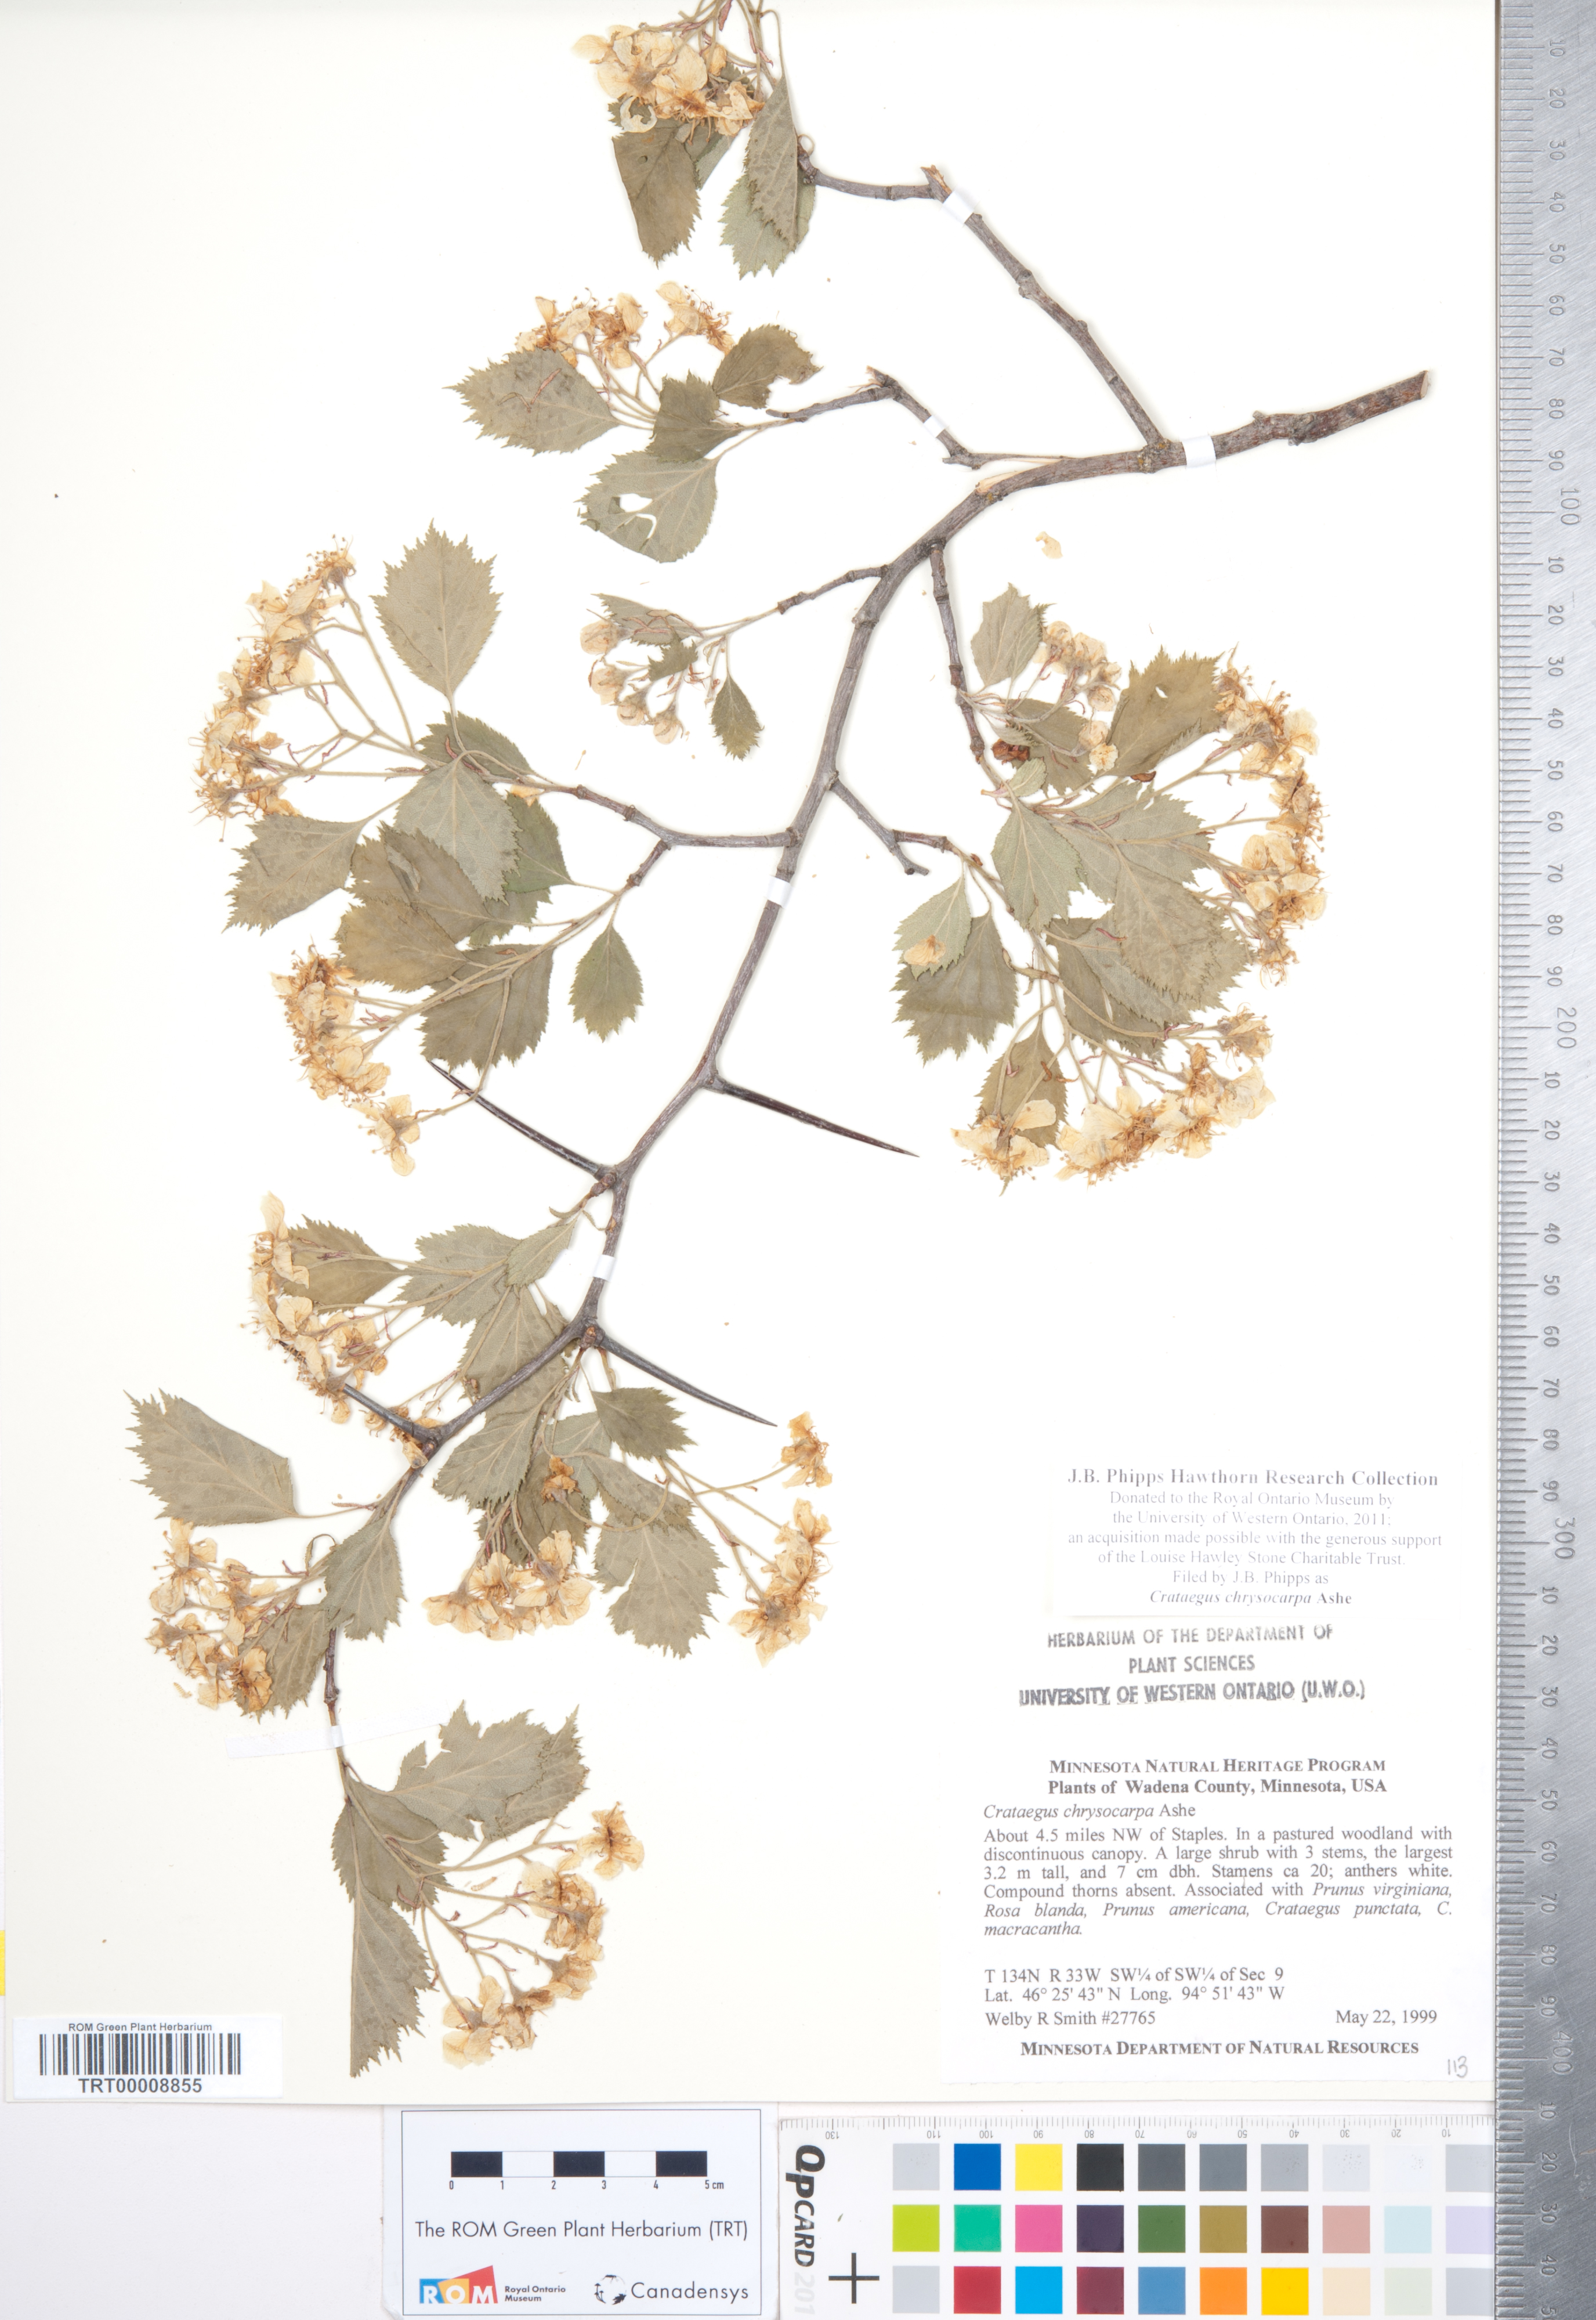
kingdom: Plantae
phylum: Tracheophyta
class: Magnoliopsida
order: Rosales
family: Rosaceae
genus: Crataegus
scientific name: Crataegus chrysocarpa
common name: Fire-berry hawthorn
